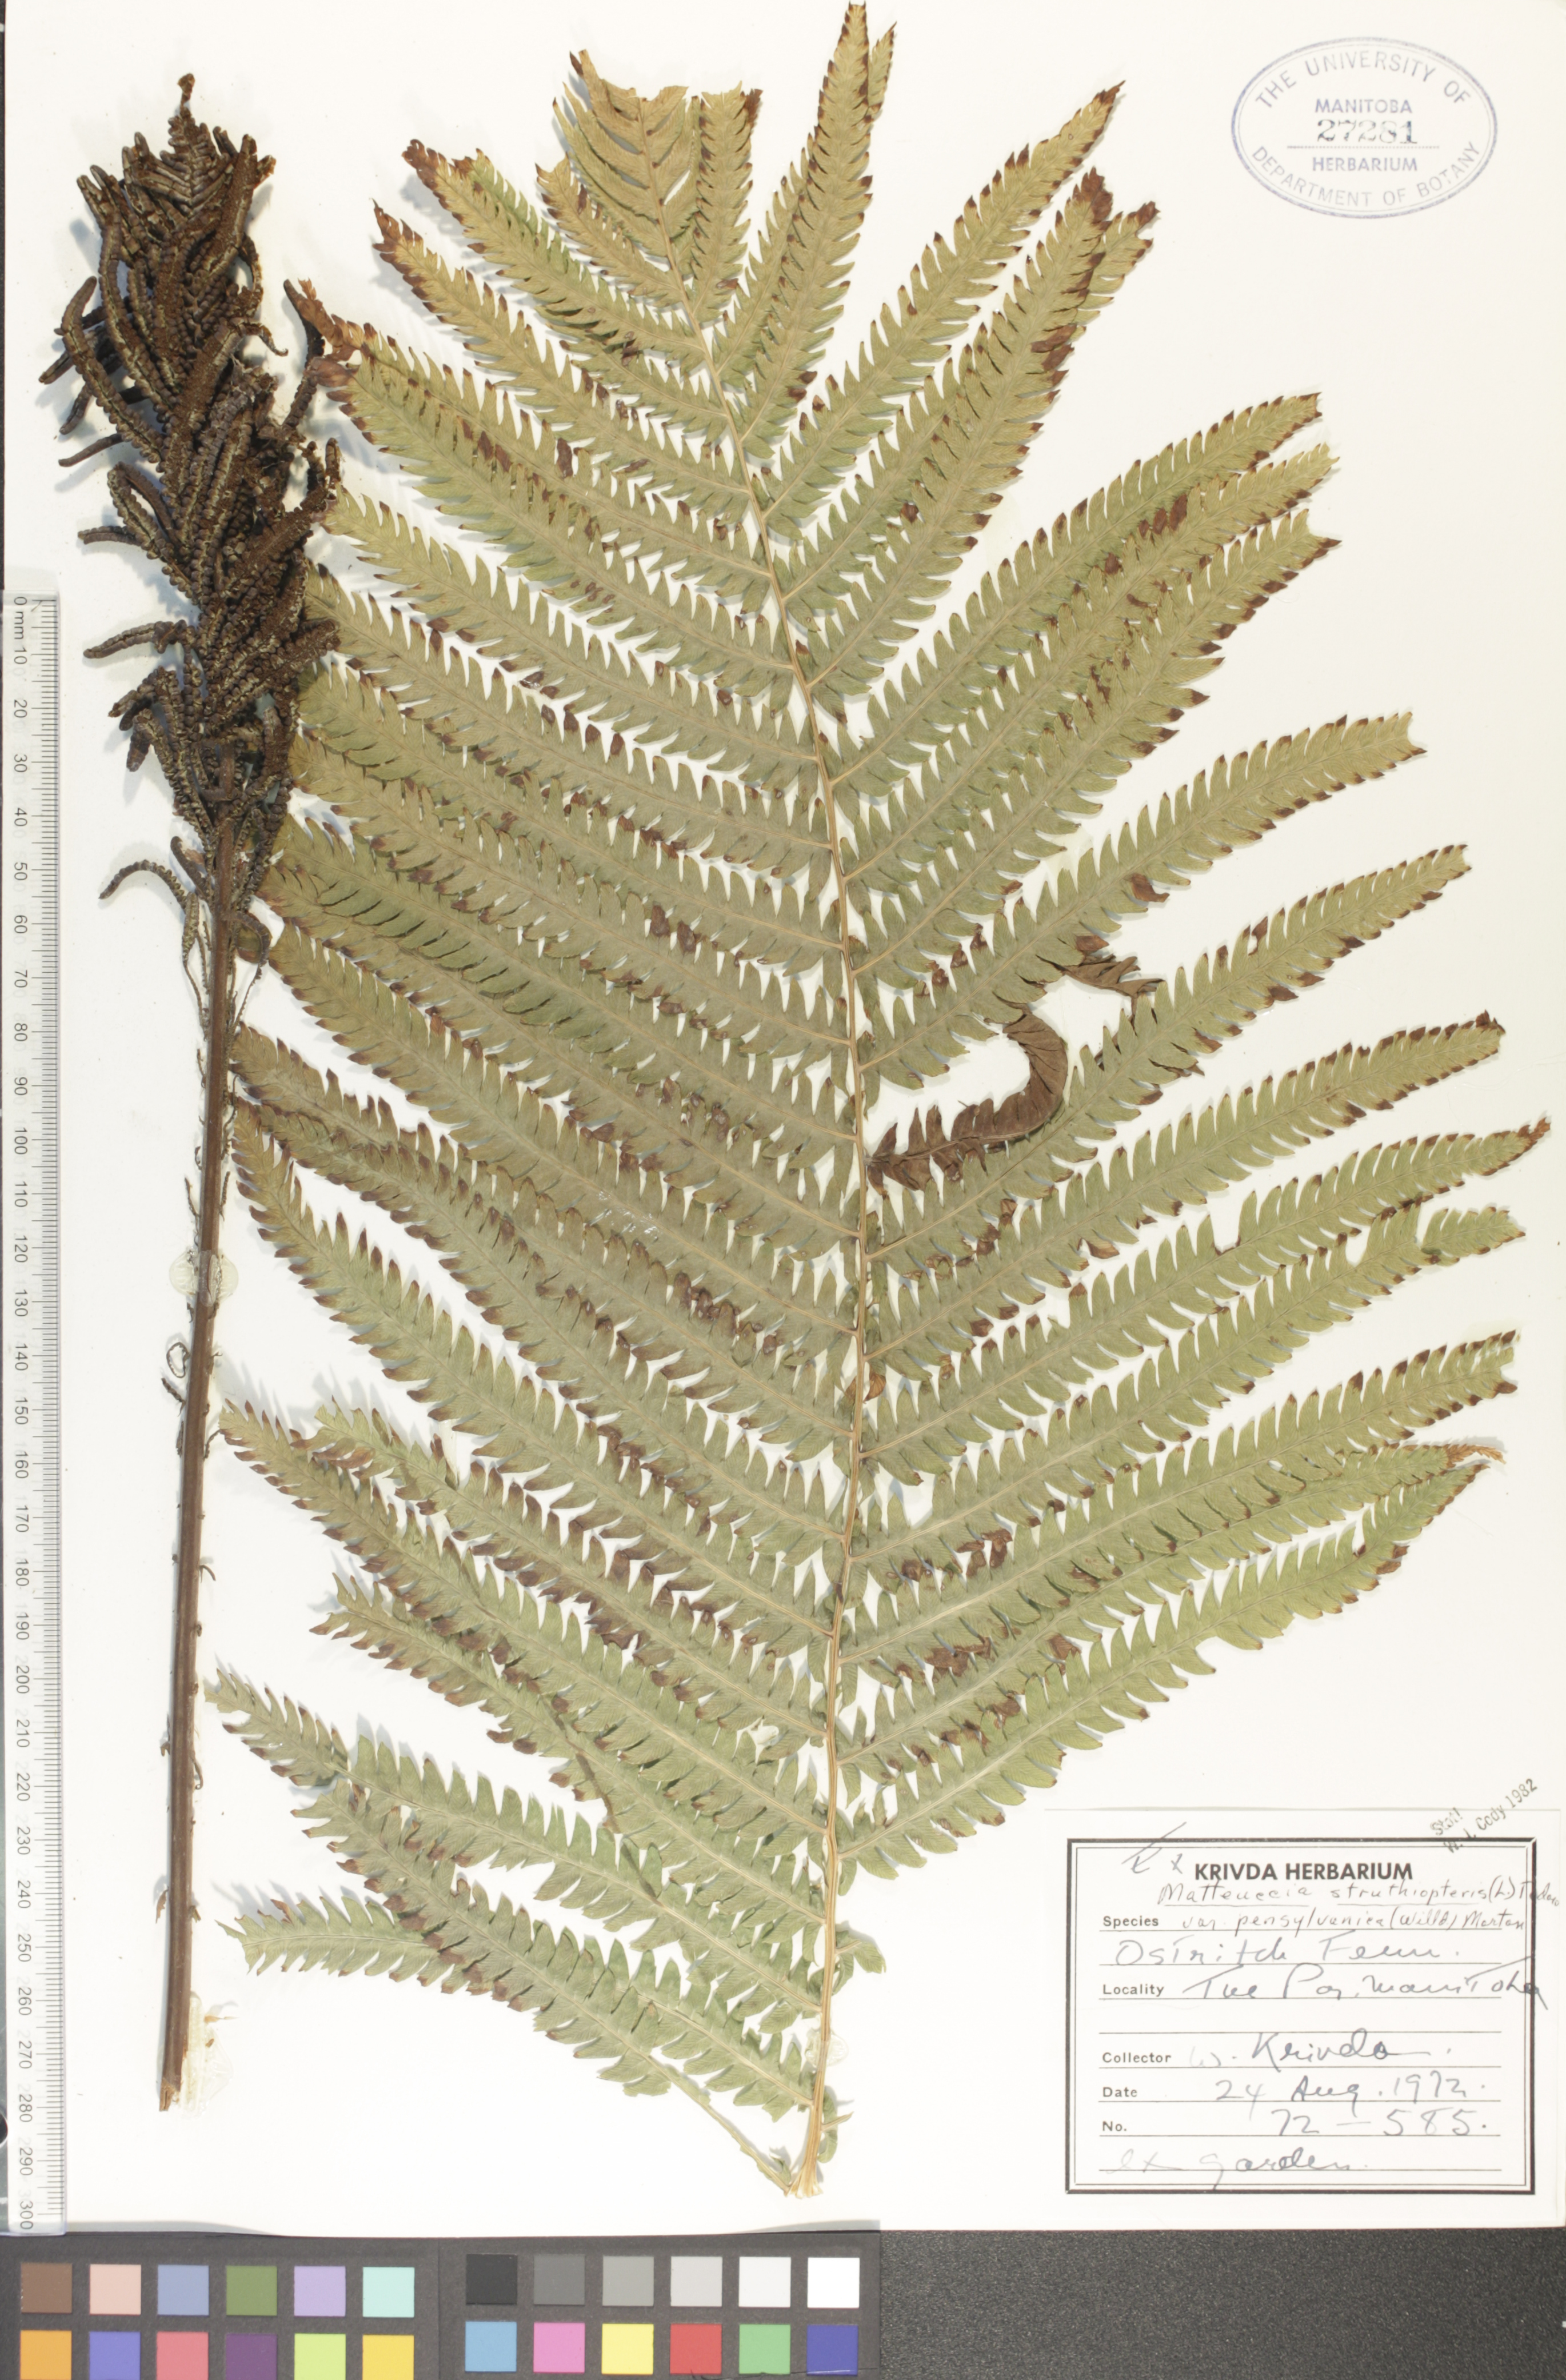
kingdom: Plantae
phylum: Tracheophyta
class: Polypodiopsida
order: Polypodiales
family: Onocleaceae
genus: Matteuccia
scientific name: Matteuccia pensylvanica
